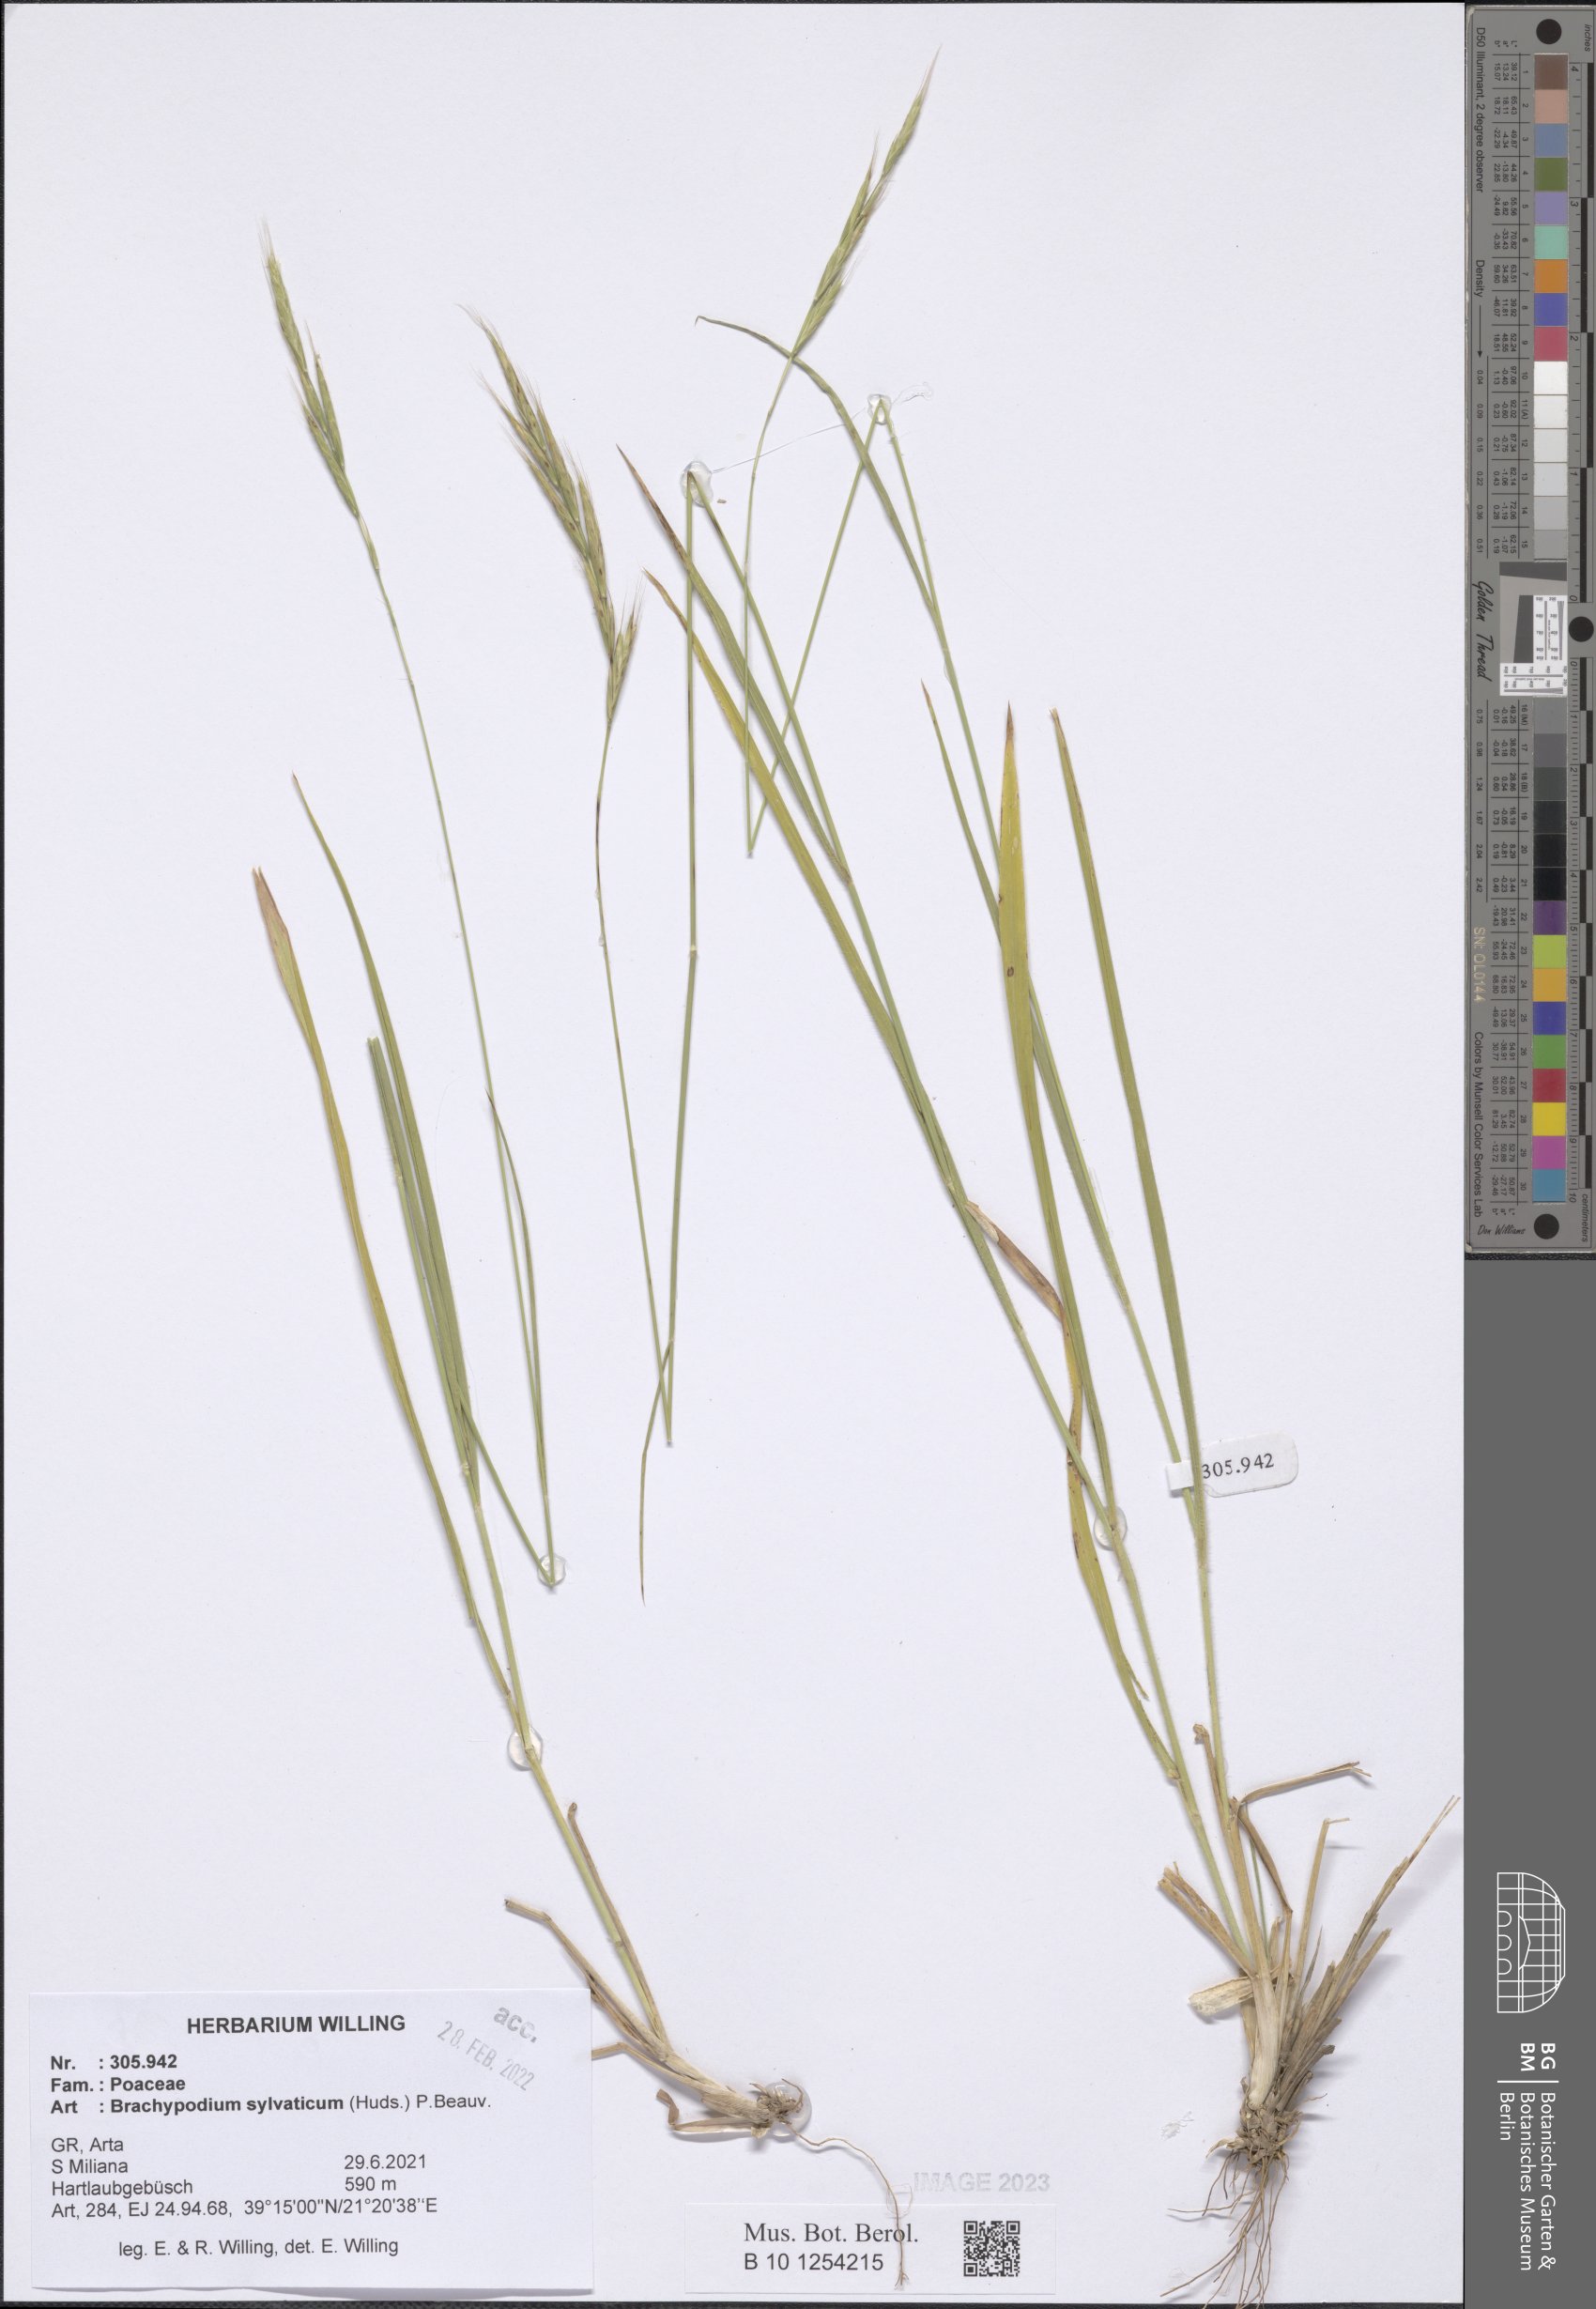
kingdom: Plantae
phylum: Tracheophyta
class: Liliopsida
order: Poales
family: Poaceae
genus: Brachypodium
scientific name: Brachypodium sylvaticum
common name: False-brome
